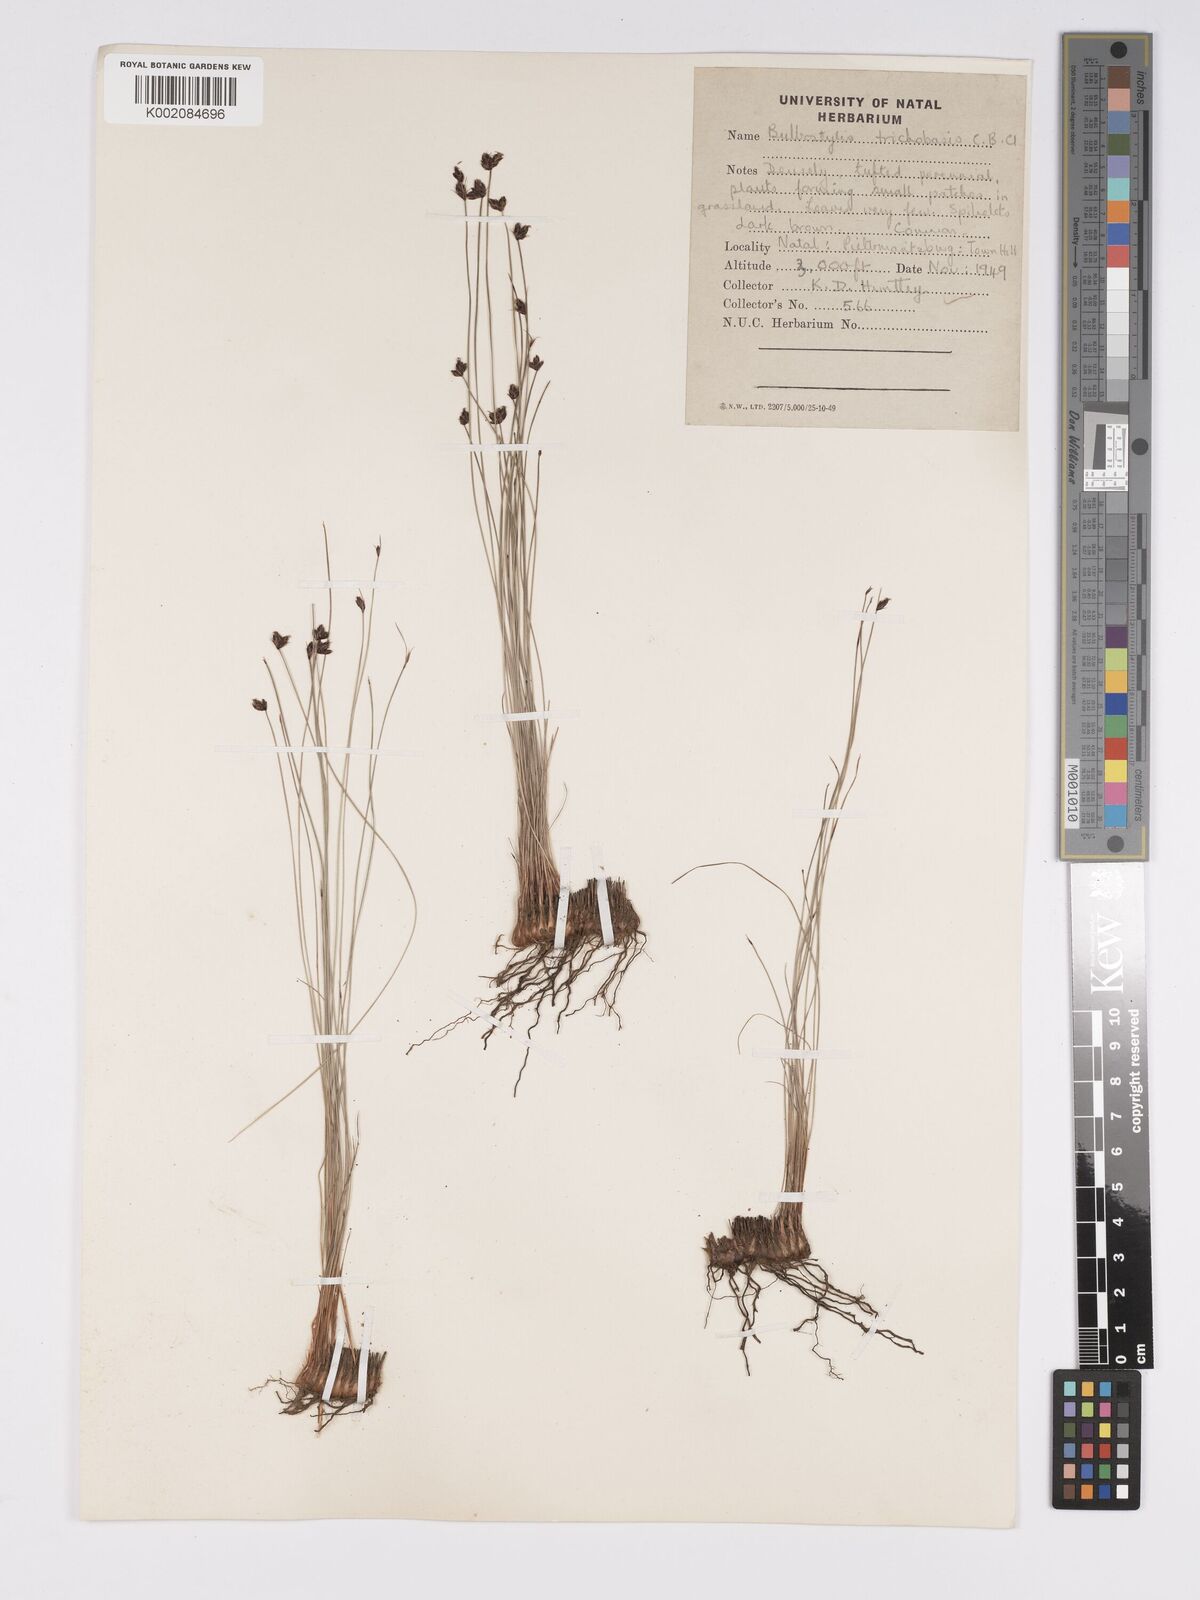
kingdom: Plantae
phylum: Tracheophyta
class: Liliopsida
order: Poales
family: Cyperaceae
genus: Bulbostylis
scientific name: Bulbostylis trichobasis
